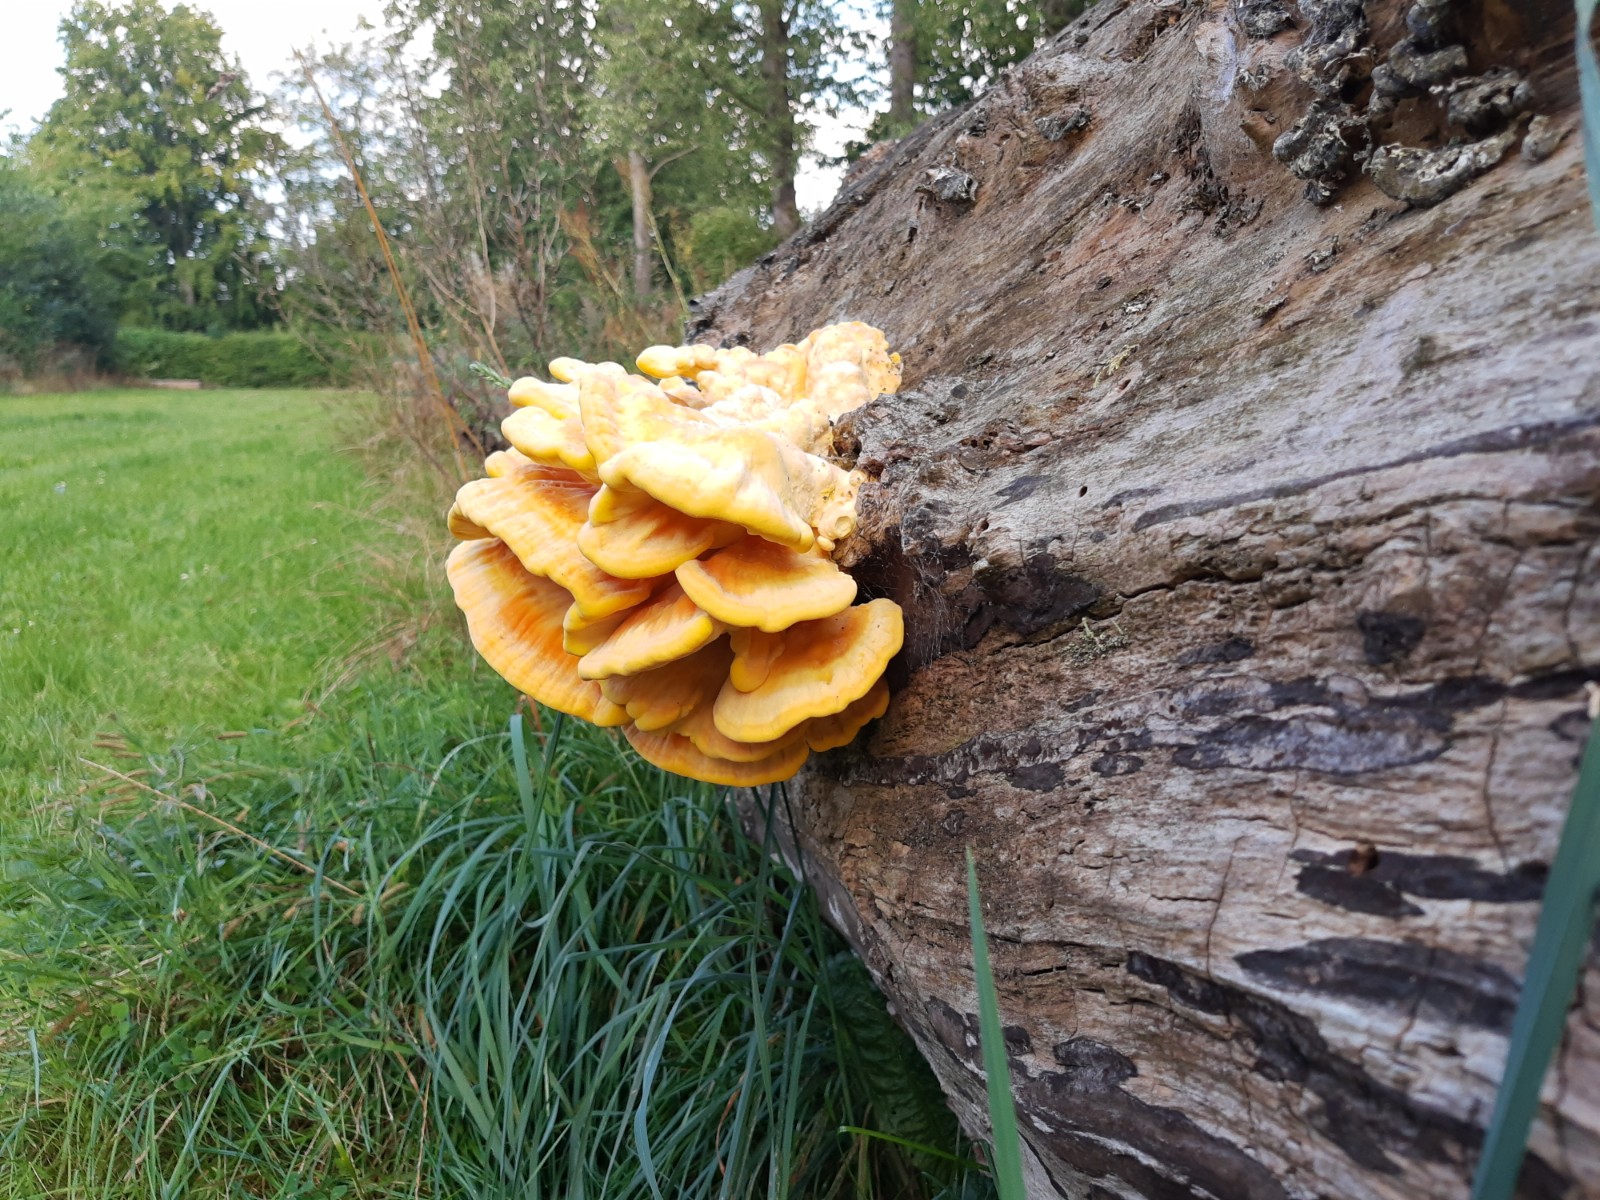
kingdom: Fungi
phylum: Basidiomycota
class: Agaricomycetes
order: Polyporales
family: Laetiporaceae
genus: Laetiporus
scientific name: Laetiporus sulphureus
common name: svovlporesvamp
